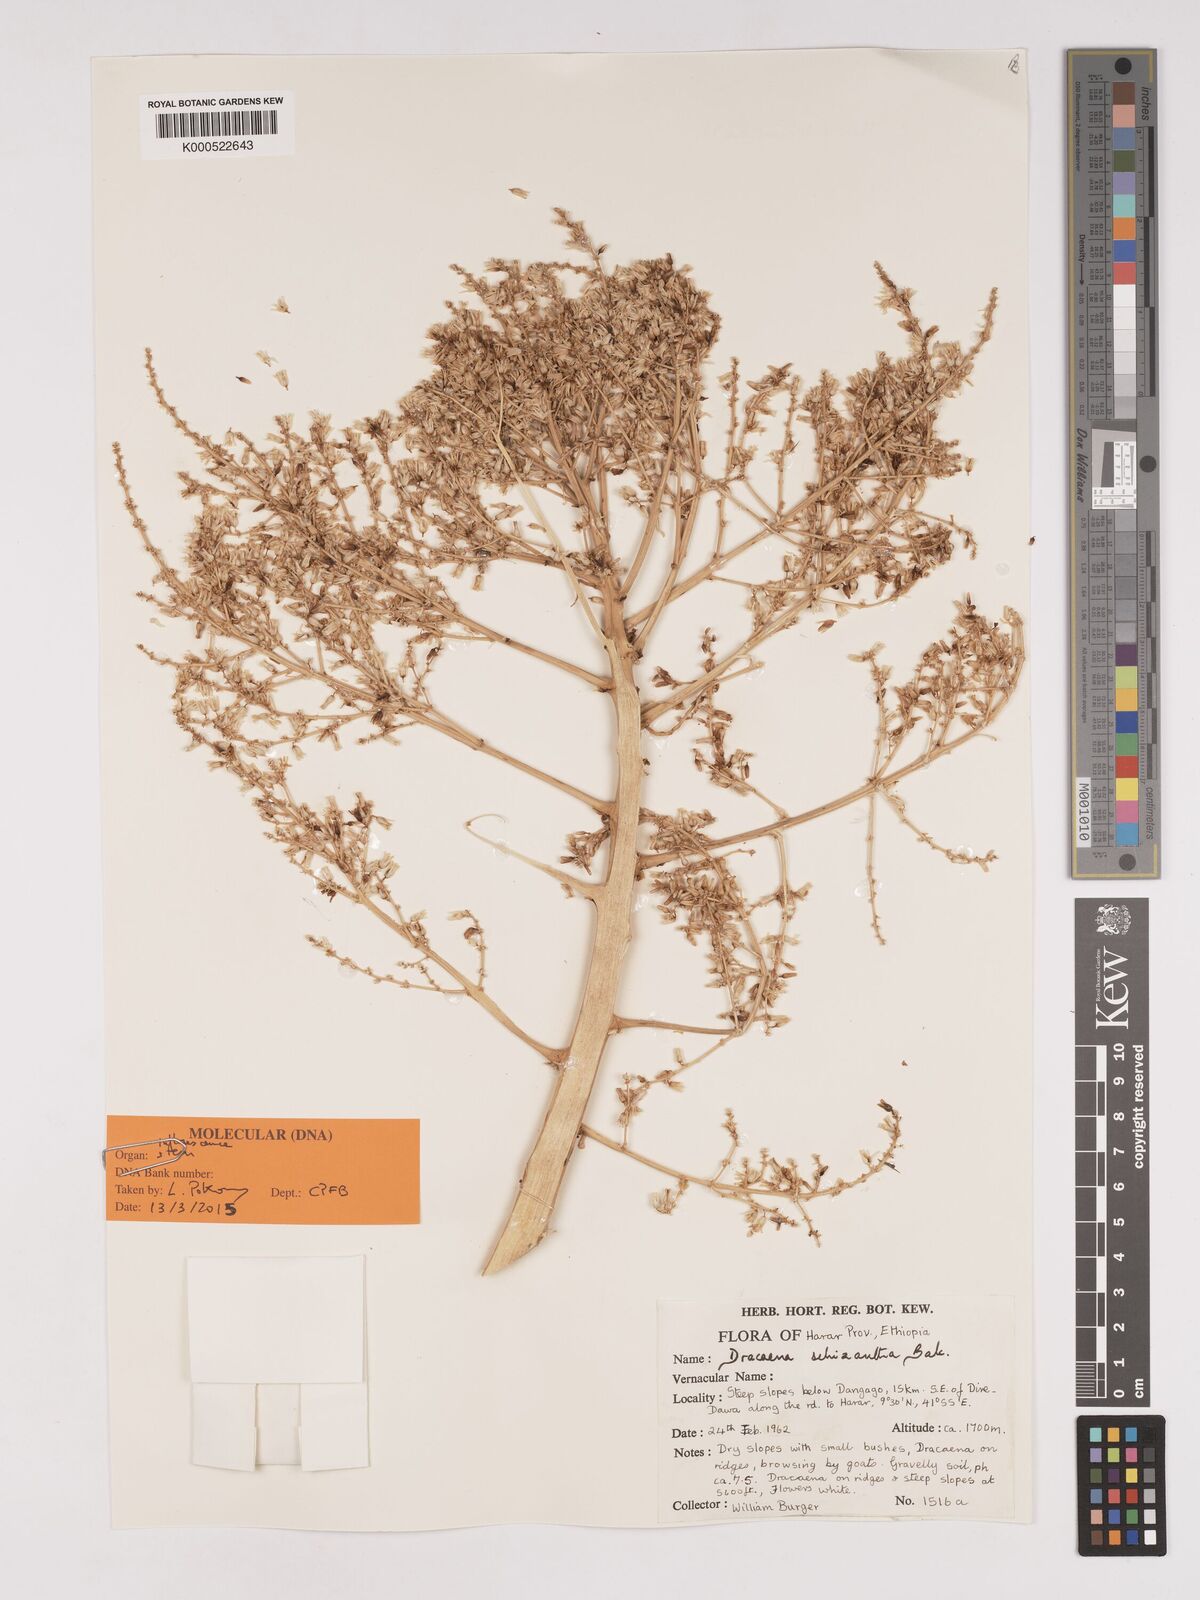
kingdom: Plantae
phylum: Tracheophyta
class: Liliopsida
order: Asparagales
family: Asparagaceae
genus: Dracaena
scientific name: Dracaena ombet
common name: Gabal elba dragon tree
